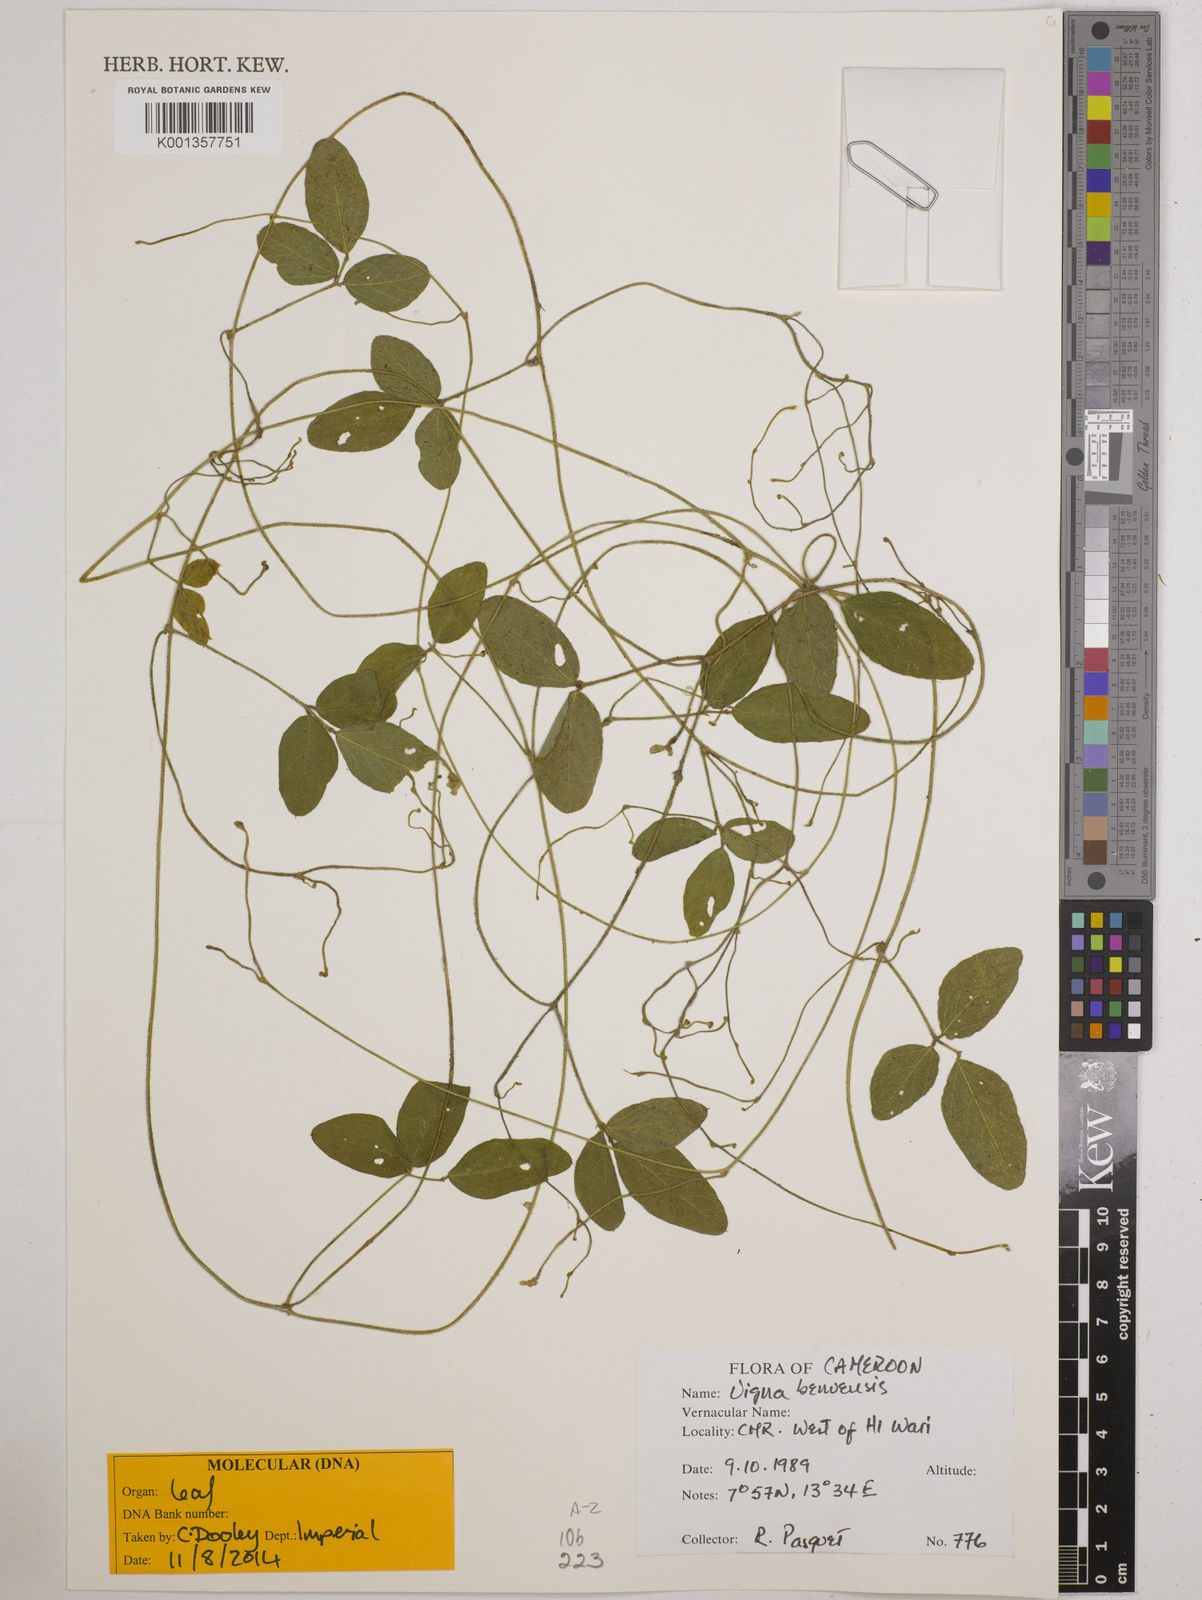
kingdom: Plantae
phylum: Tracheophyta
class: Magnoliopsida
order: Fabales
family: Fabaceae
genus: Vigna
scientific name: Vigna pubigera
